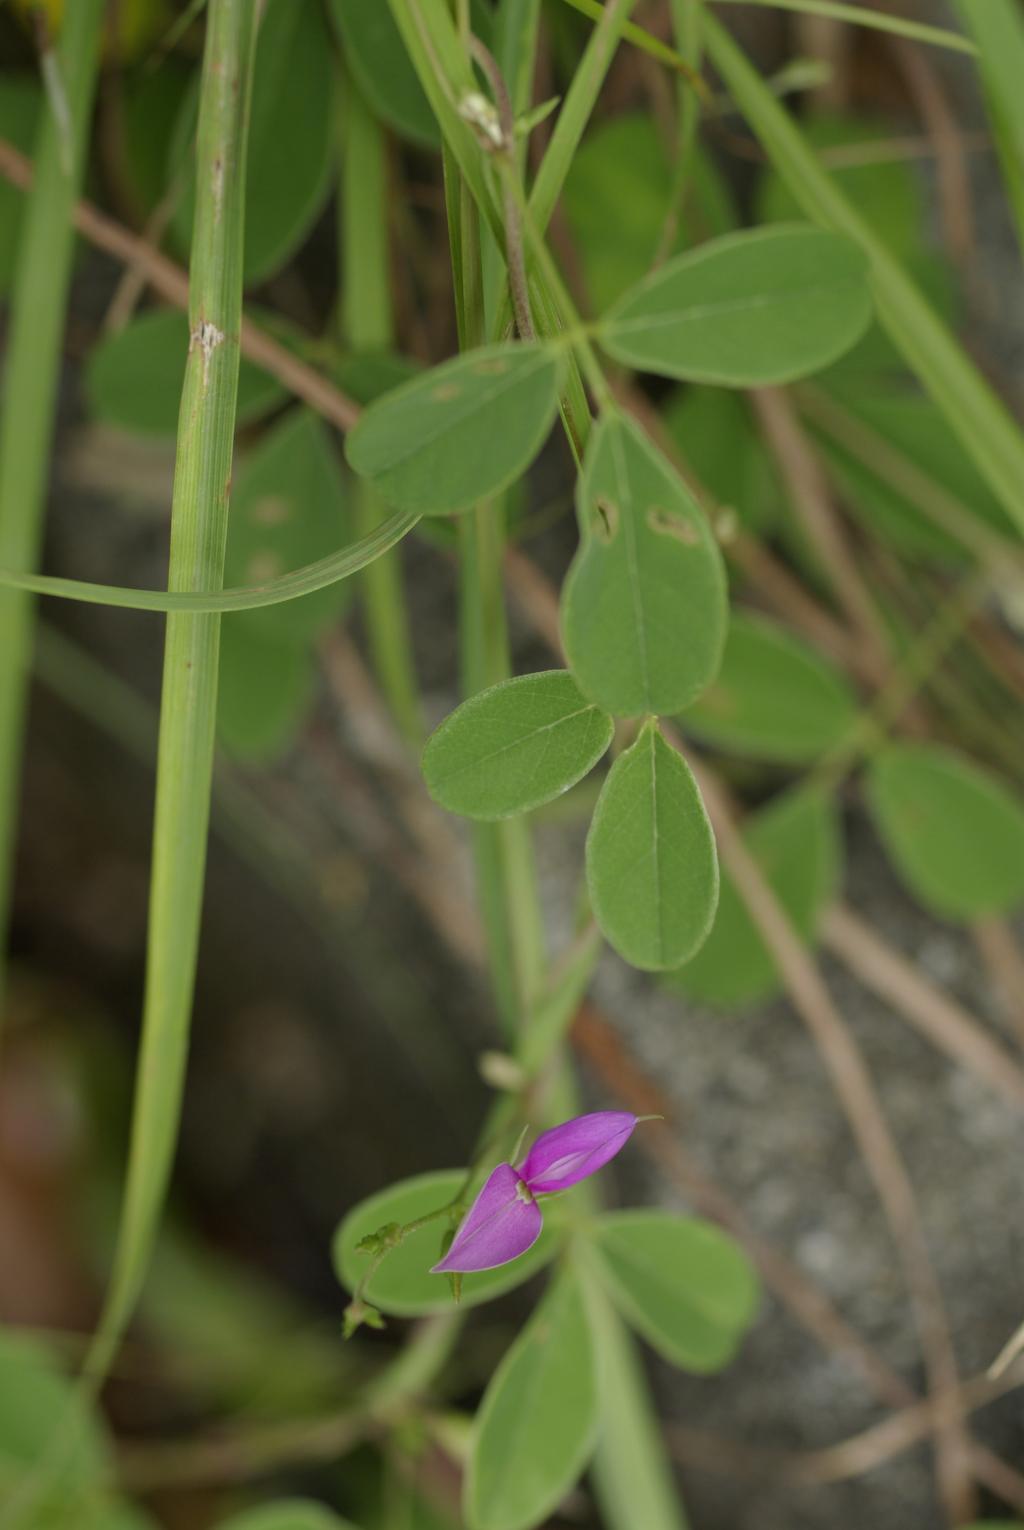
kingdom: Plantae
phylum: Tracheophyta
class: Magnoliopsida
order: Fabales
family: Fabaceae
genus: Galactia
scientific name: Galactia tashiroi
